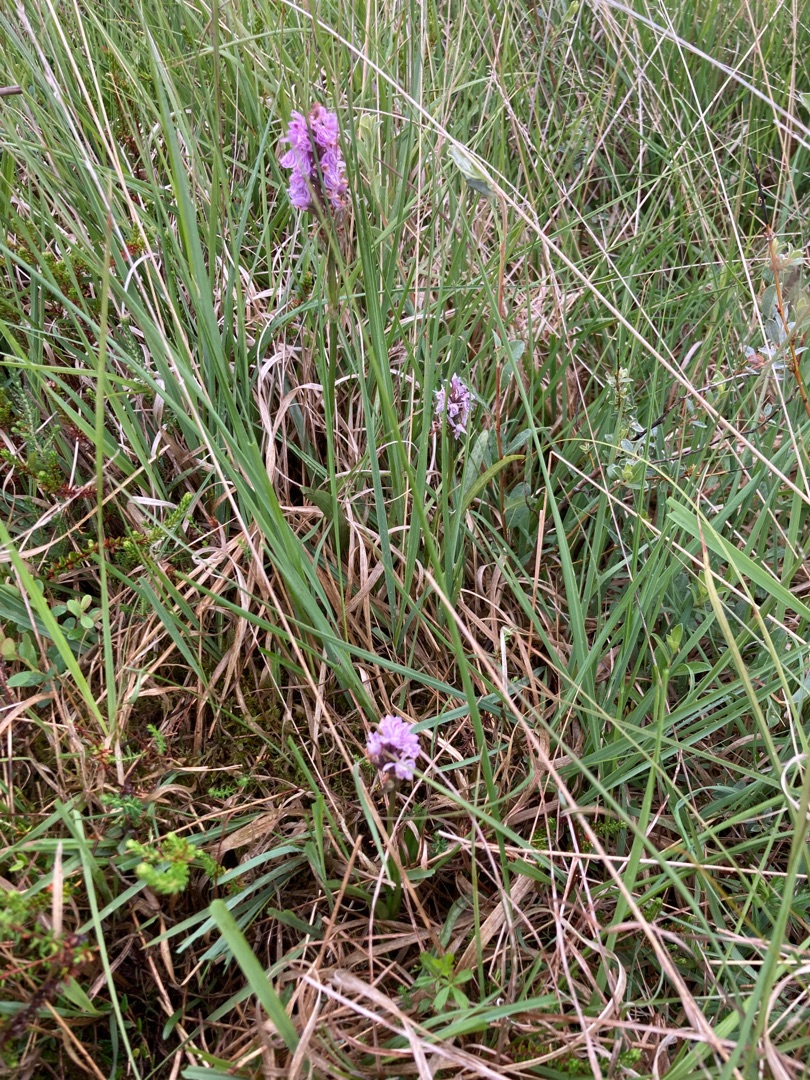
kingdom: Plantae
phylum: Tracheophyta
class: Liliopsida
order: Asparagales
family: Orchidaceae
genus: Dactylorhiza
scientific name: Dactylorhiza maculata
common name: Plettet gøgeurt (underart)
